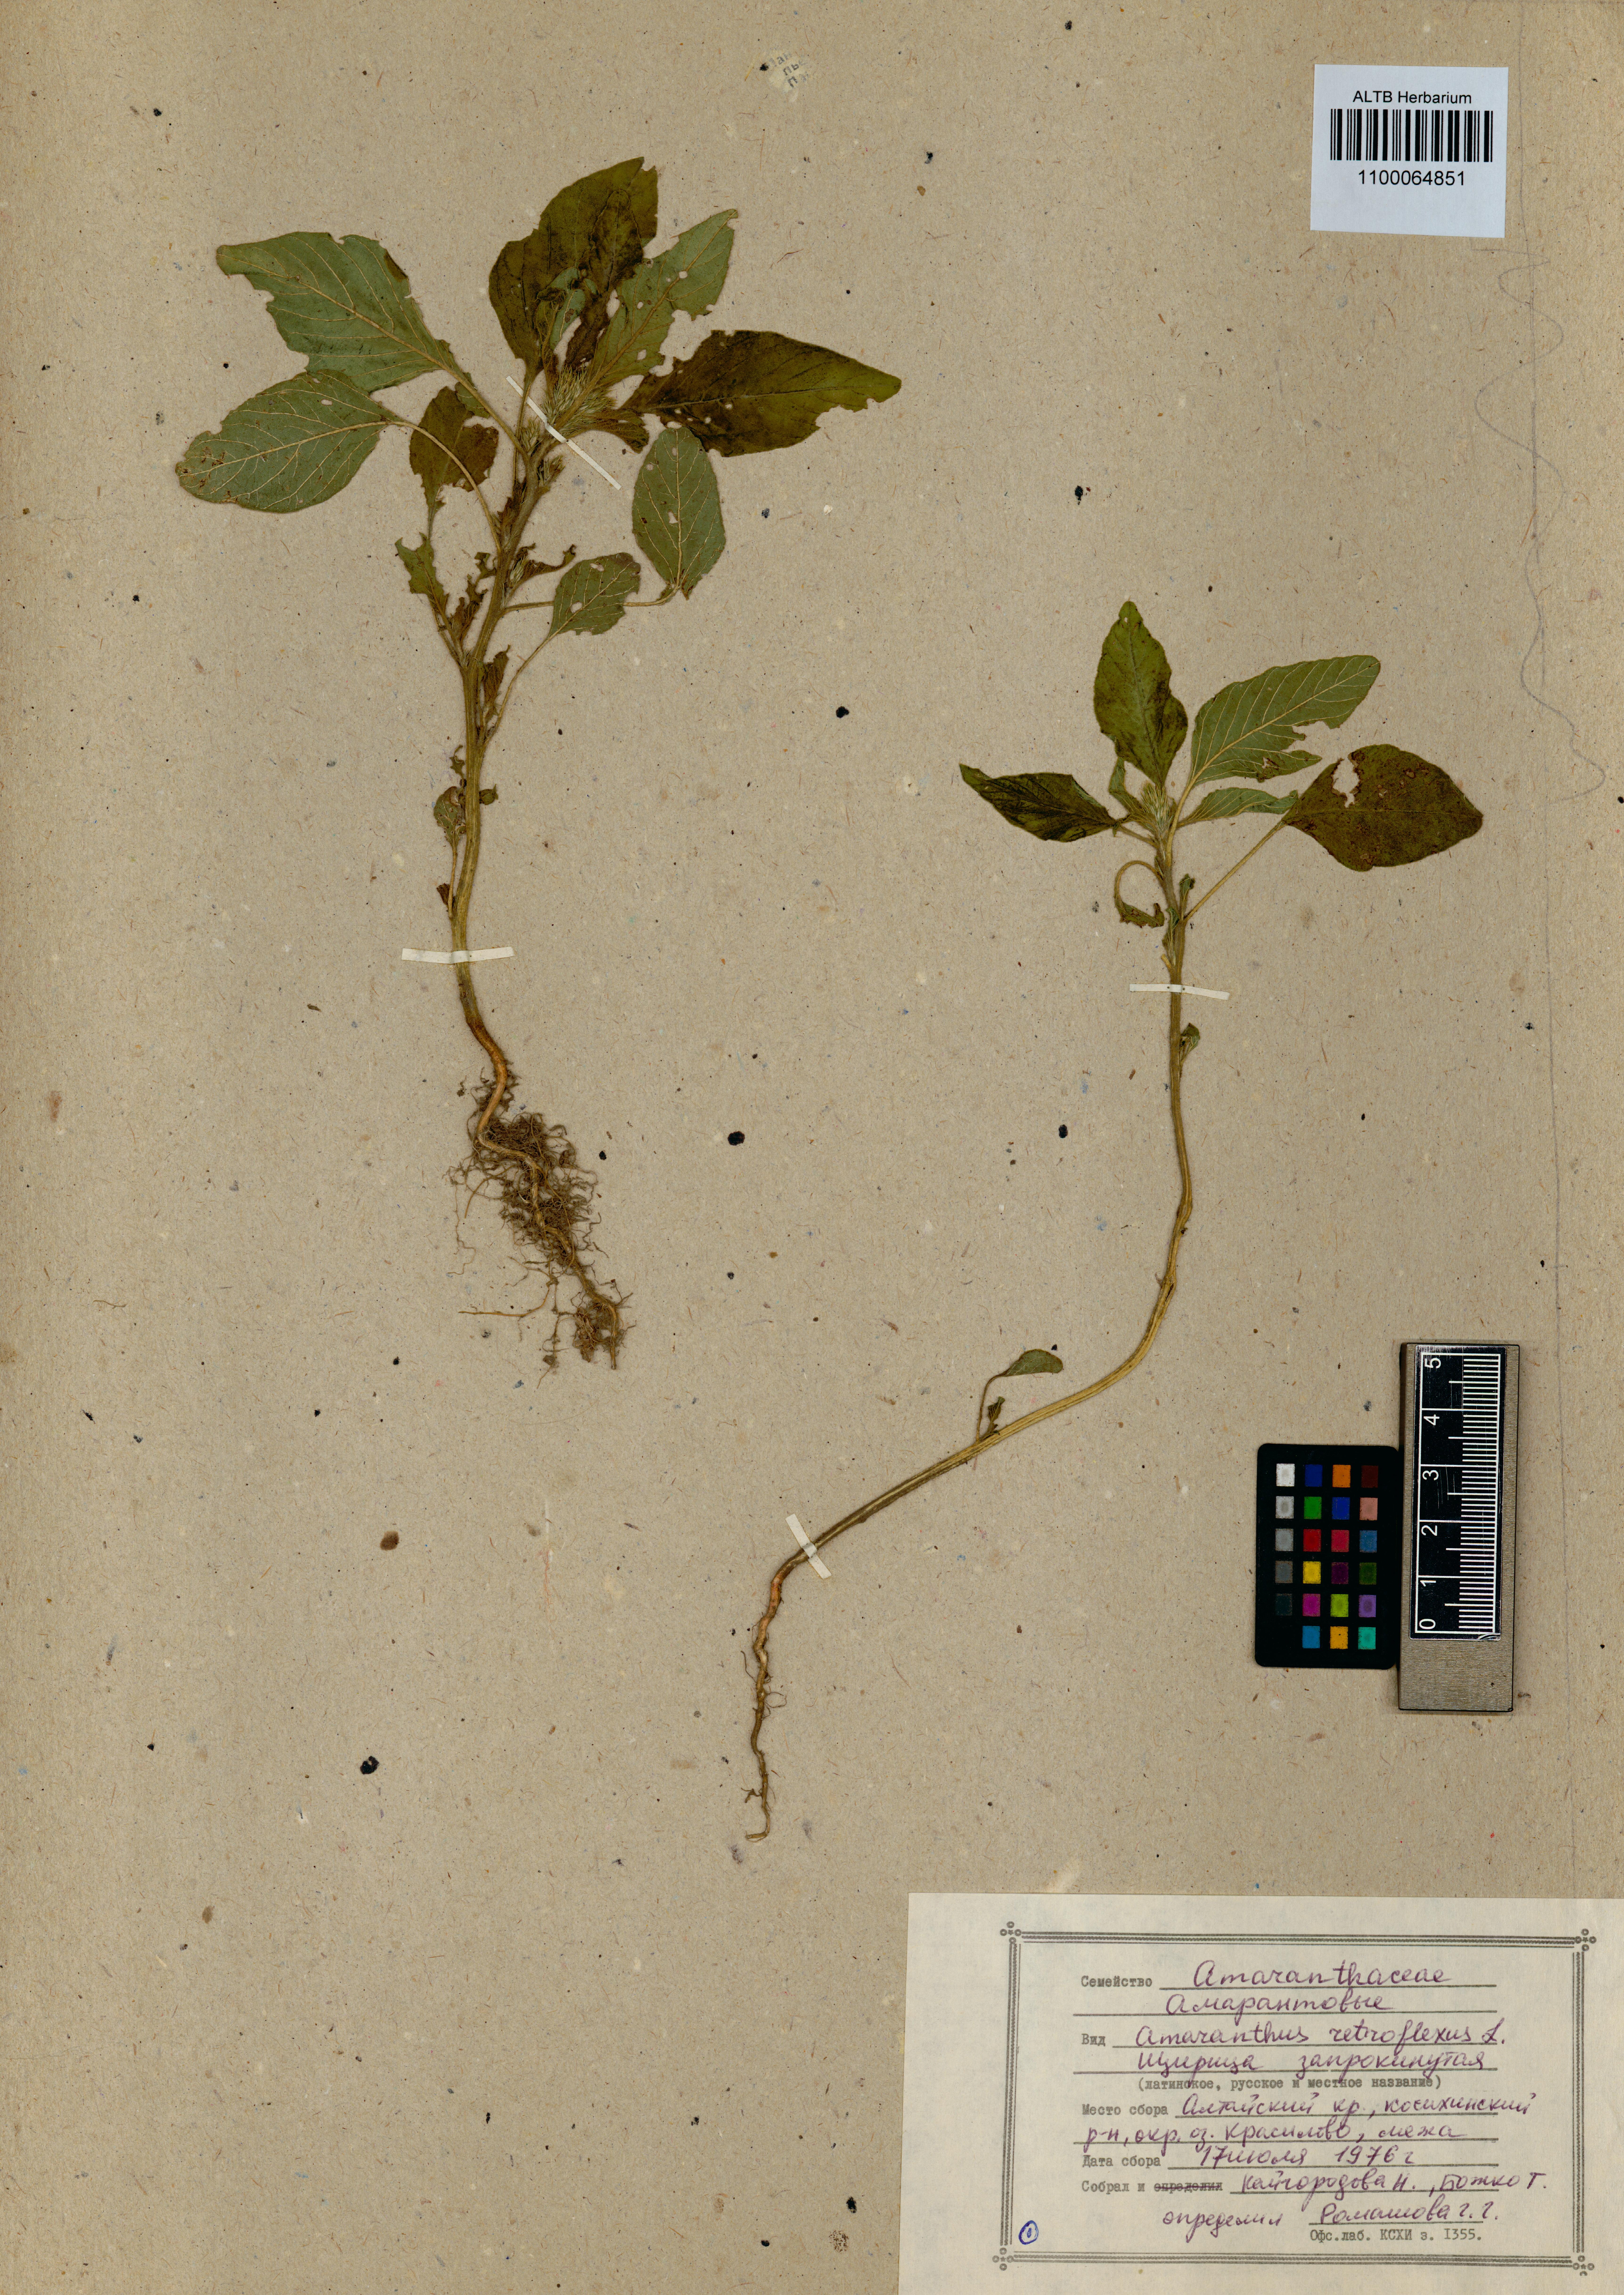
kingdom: Plantae
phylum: Tracheophyta
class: Magnoliopsida
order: Caryophyllales
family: Amaranthaceae
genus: Amaranthus
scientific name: Amaranthus retroflexus
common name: Redroot amaranth
